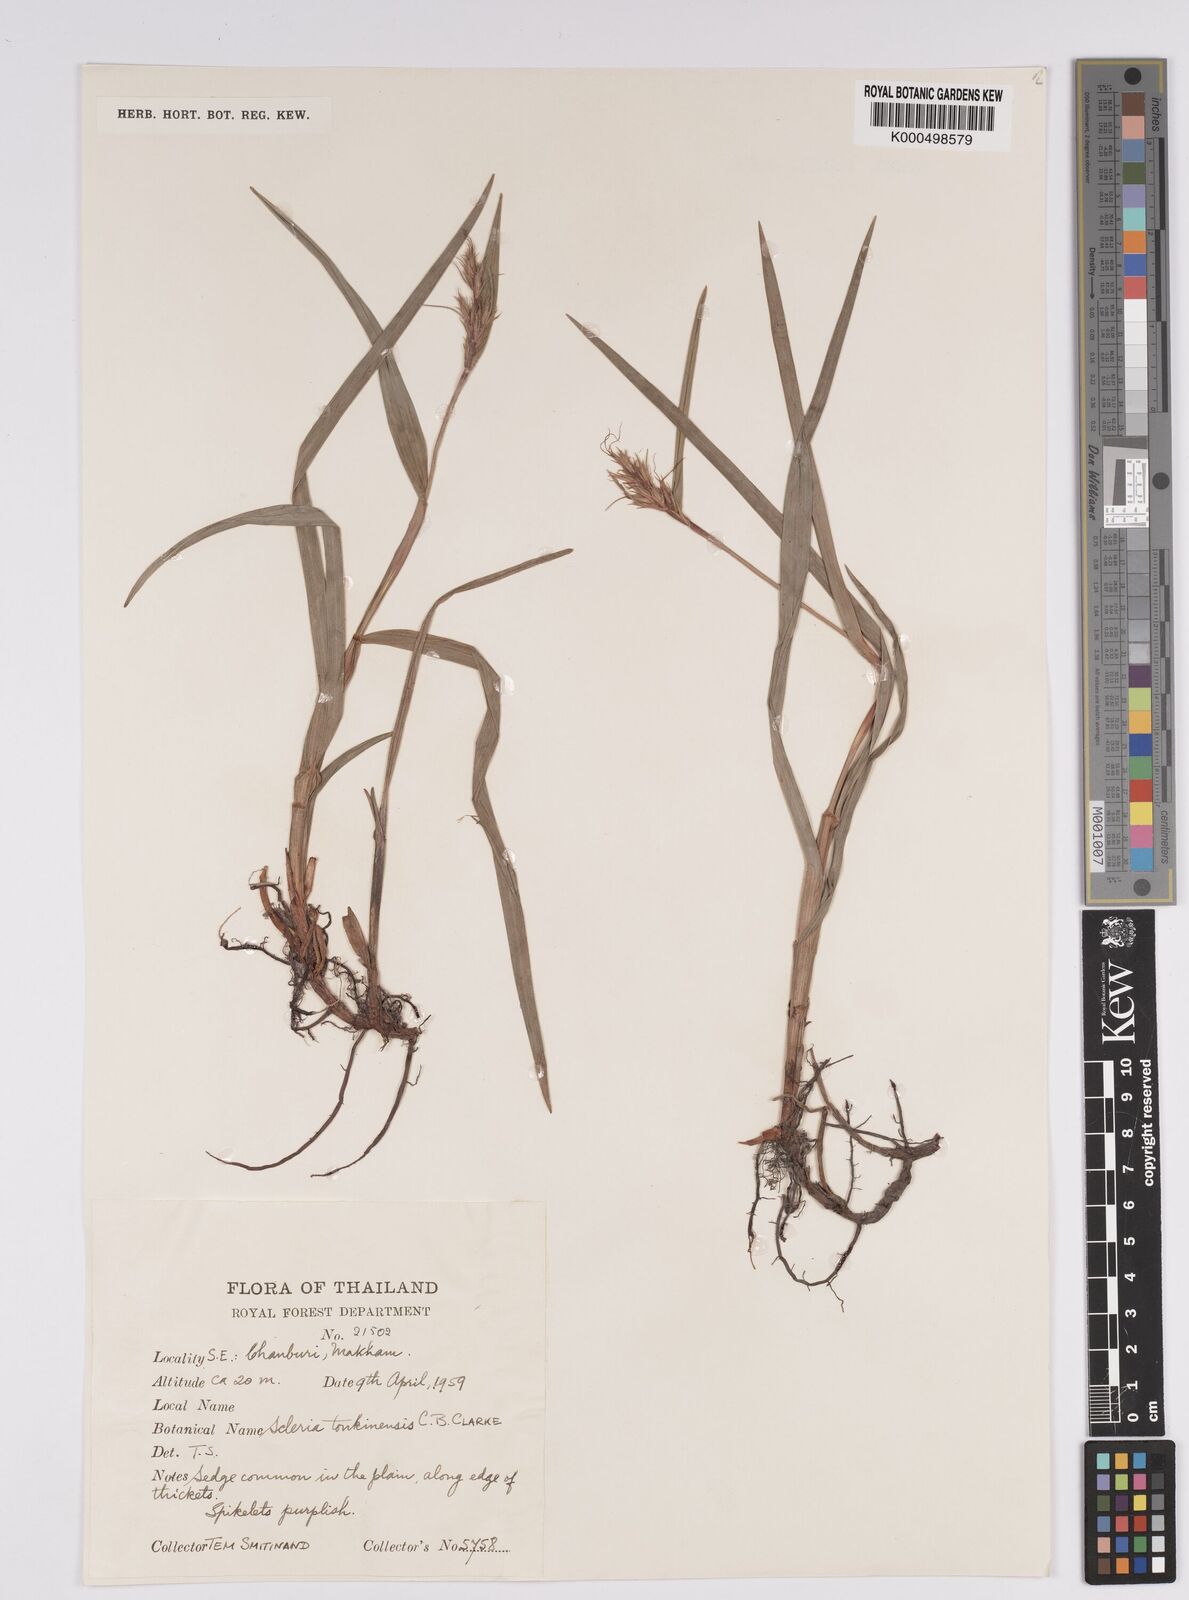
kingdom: Plantae
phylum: Tracheophyta
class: Liliopsida
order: Poales
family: Cyperaceae
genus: Scleria
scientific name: Scleria tonkinensis
